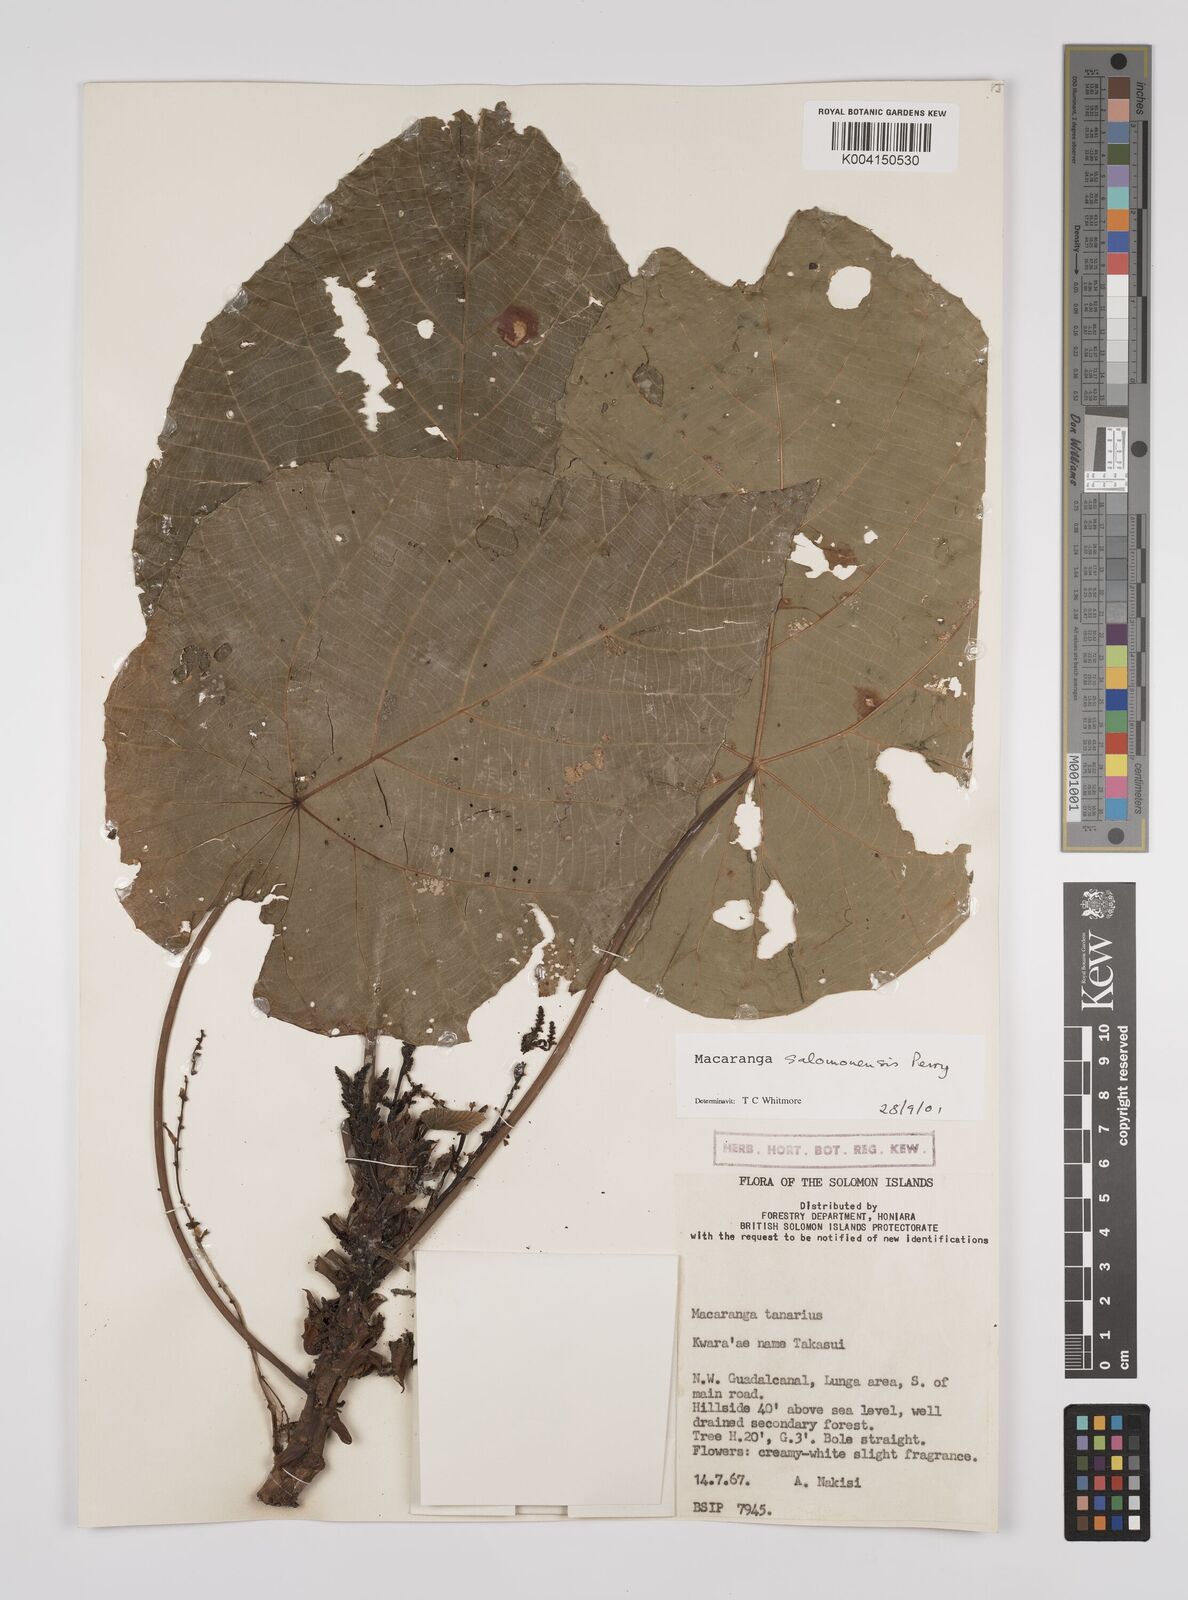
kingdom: Plantae
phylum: Tracheophyta
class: Magnoliopsida
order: Malpighiales
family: Euphorbiaceae
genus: Macaranga
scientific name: Macaranga salomonensis
